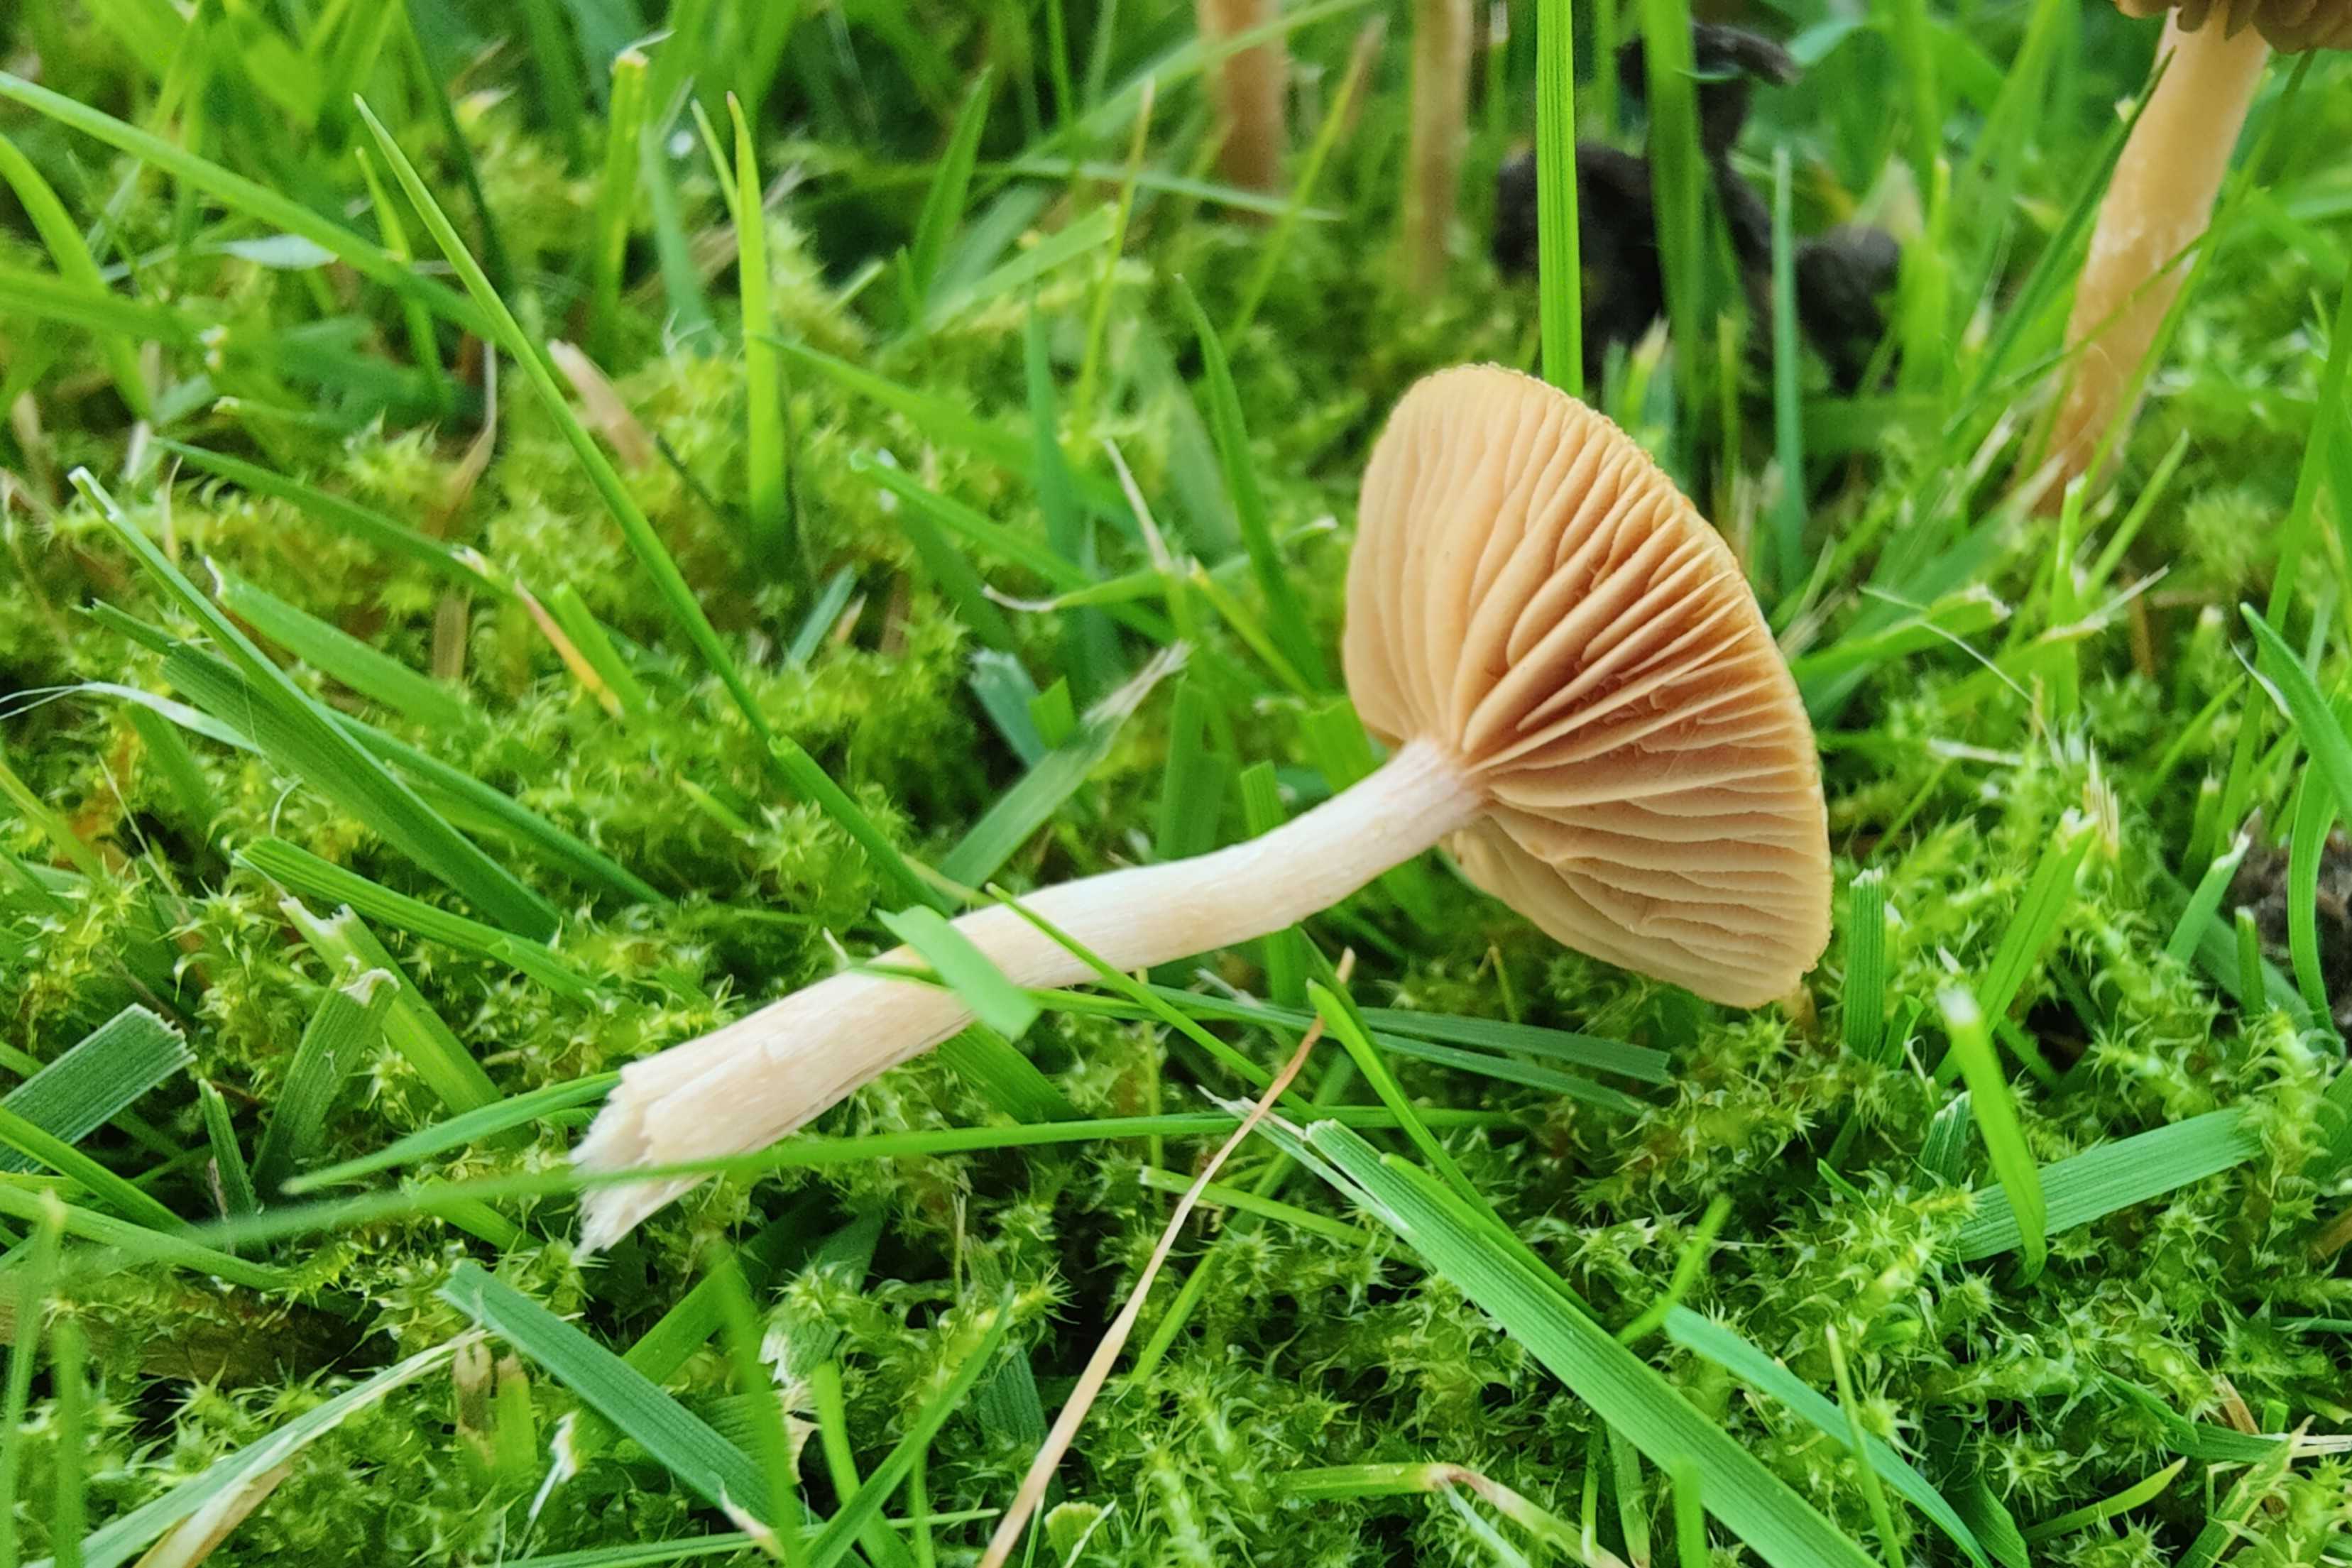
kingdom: Fungi
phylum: Basidiomycota
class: Agaricomycetes
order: Agaricales
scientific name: Agaricales
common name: champignonordenen
